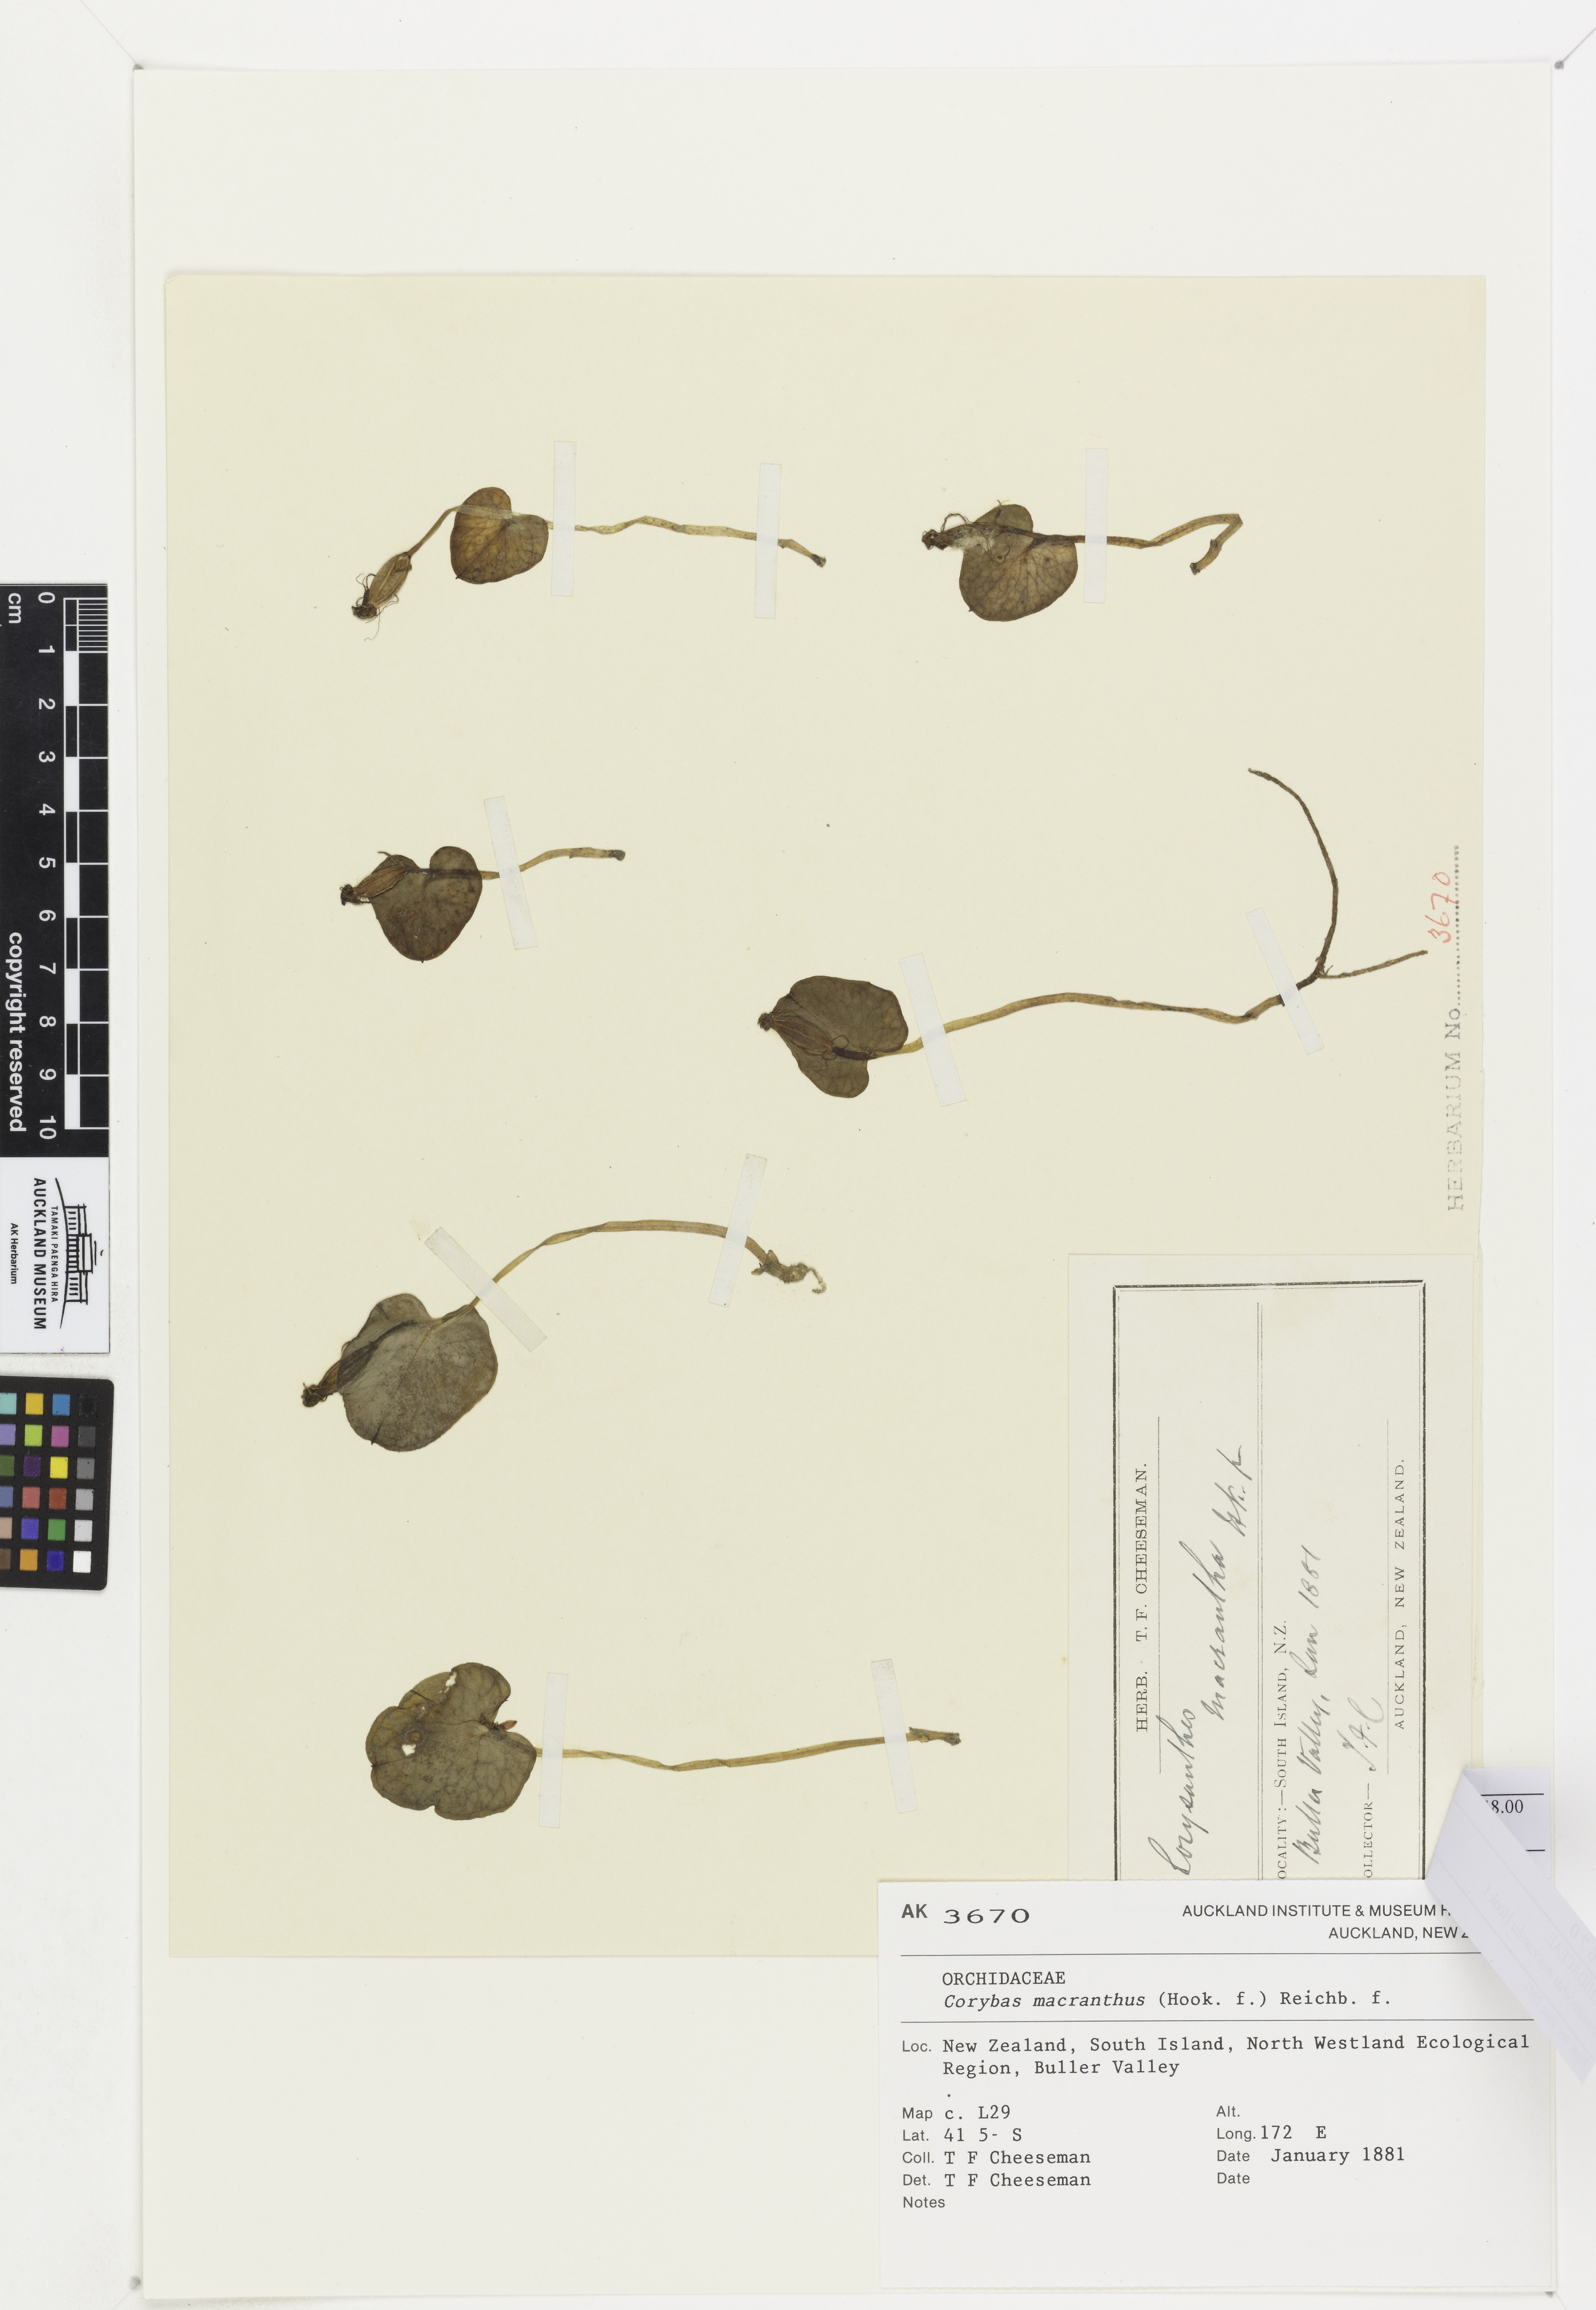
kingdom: Plantae
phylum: Tracheophyta
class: Liliopsida
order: Asparagales
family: Orchidaceae
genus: Corybas
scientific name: Corybas macranthus
